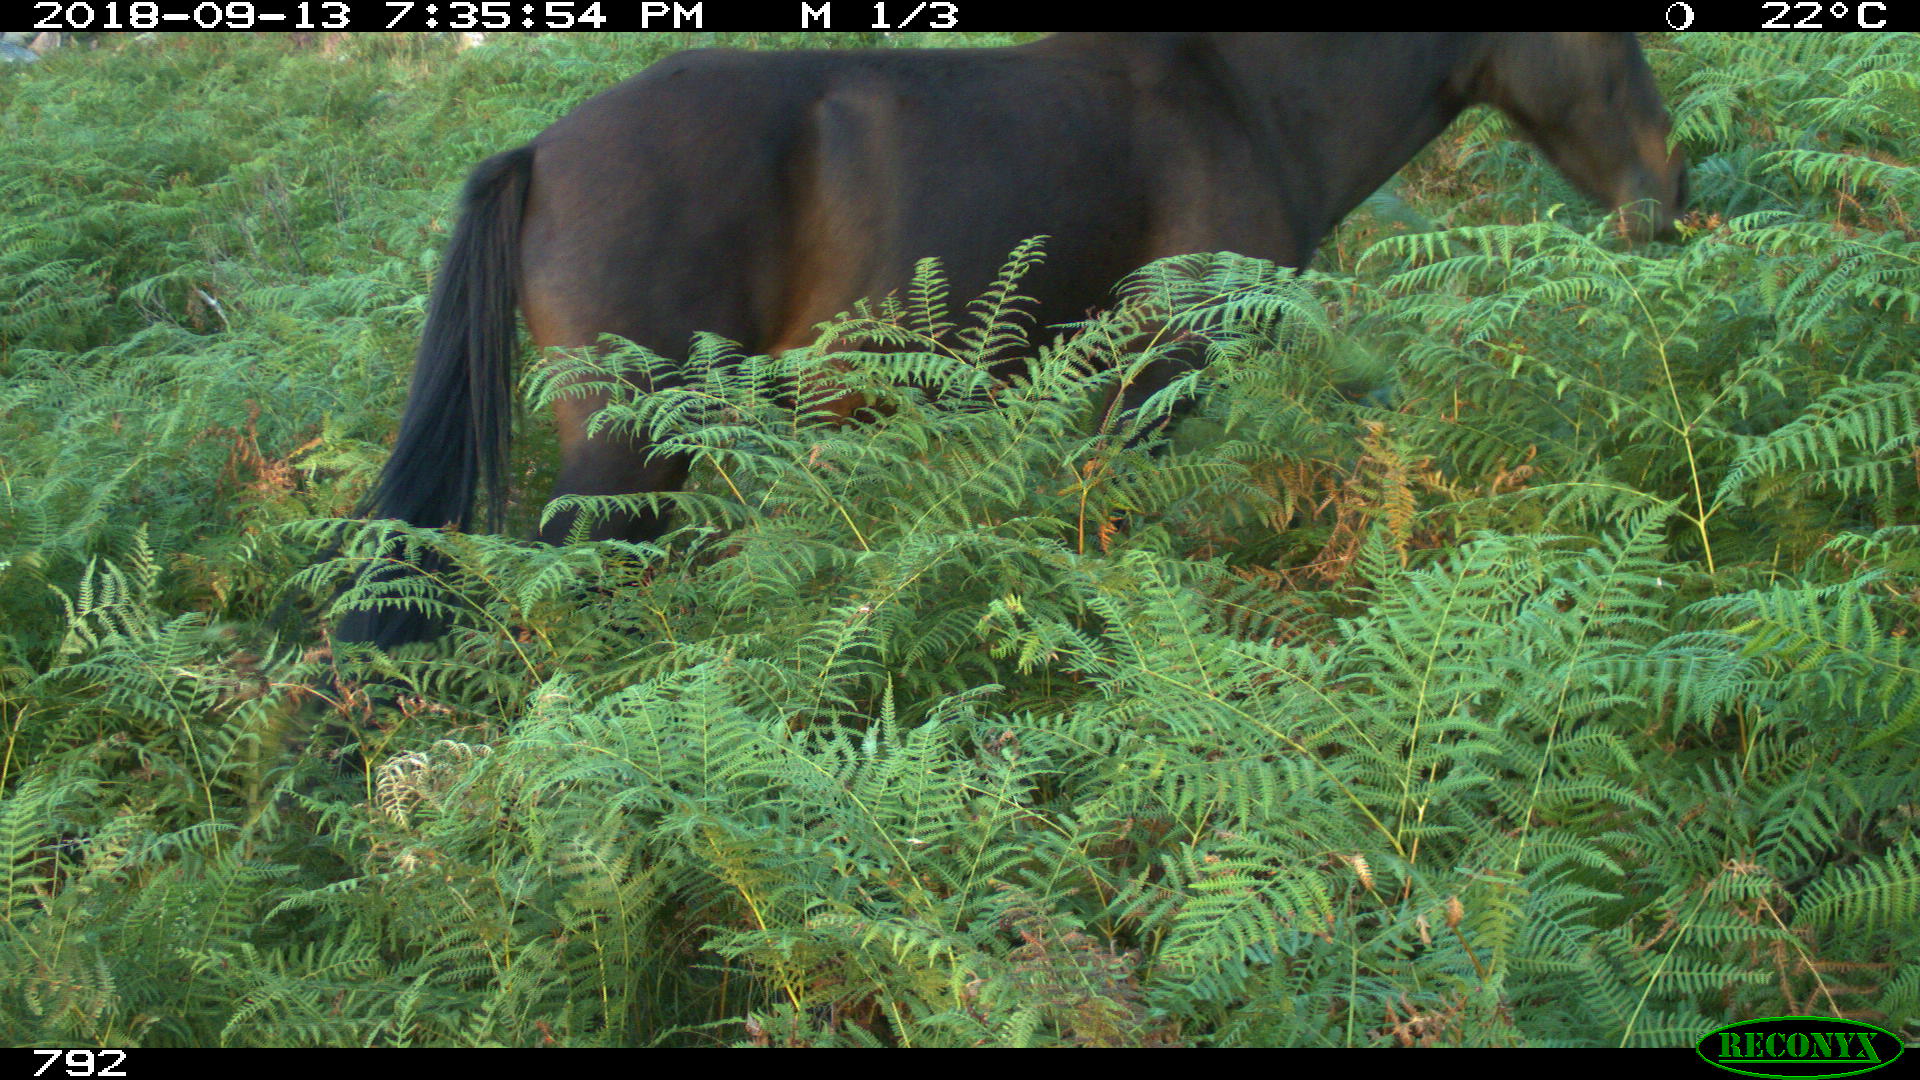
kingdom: Animalia
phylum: Chordata
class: Mammalia
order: Perissodactyla
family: Equidae
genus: Equus
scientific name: Equus caballus
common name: Horse
